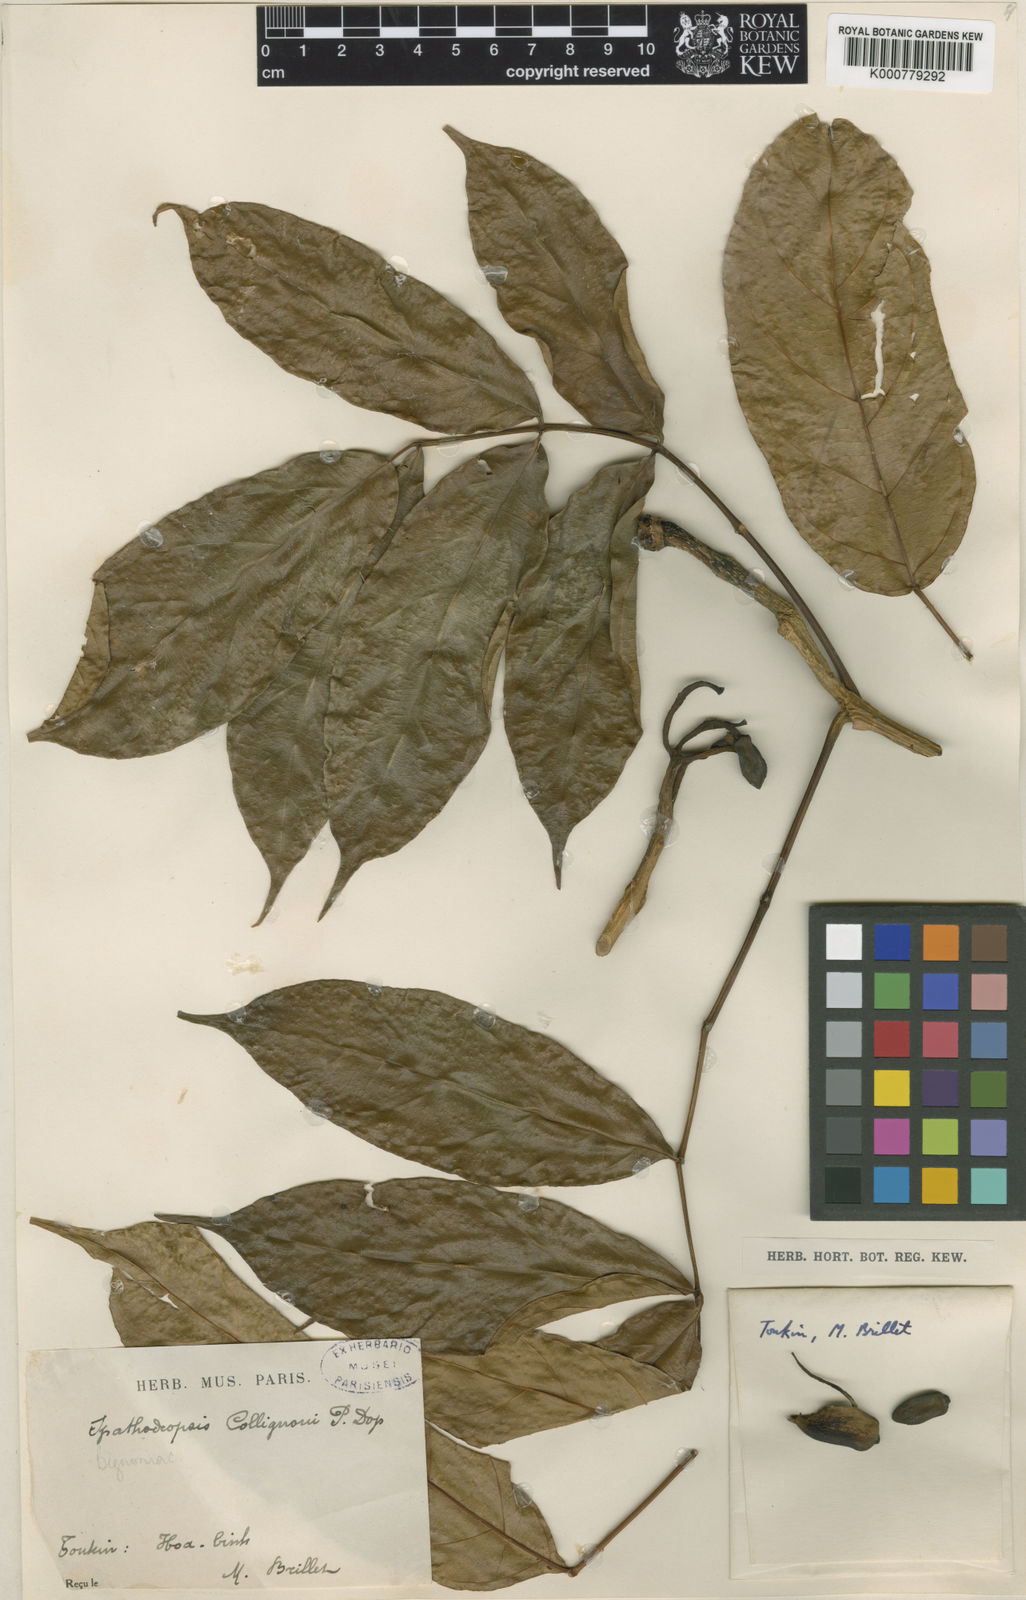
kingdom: Plantae
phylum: Tracheophyta
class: Magnoliopsida
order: Lamiales
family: Bignoniaceae
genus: Fernandoa
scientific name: Fernandoa collignonii
